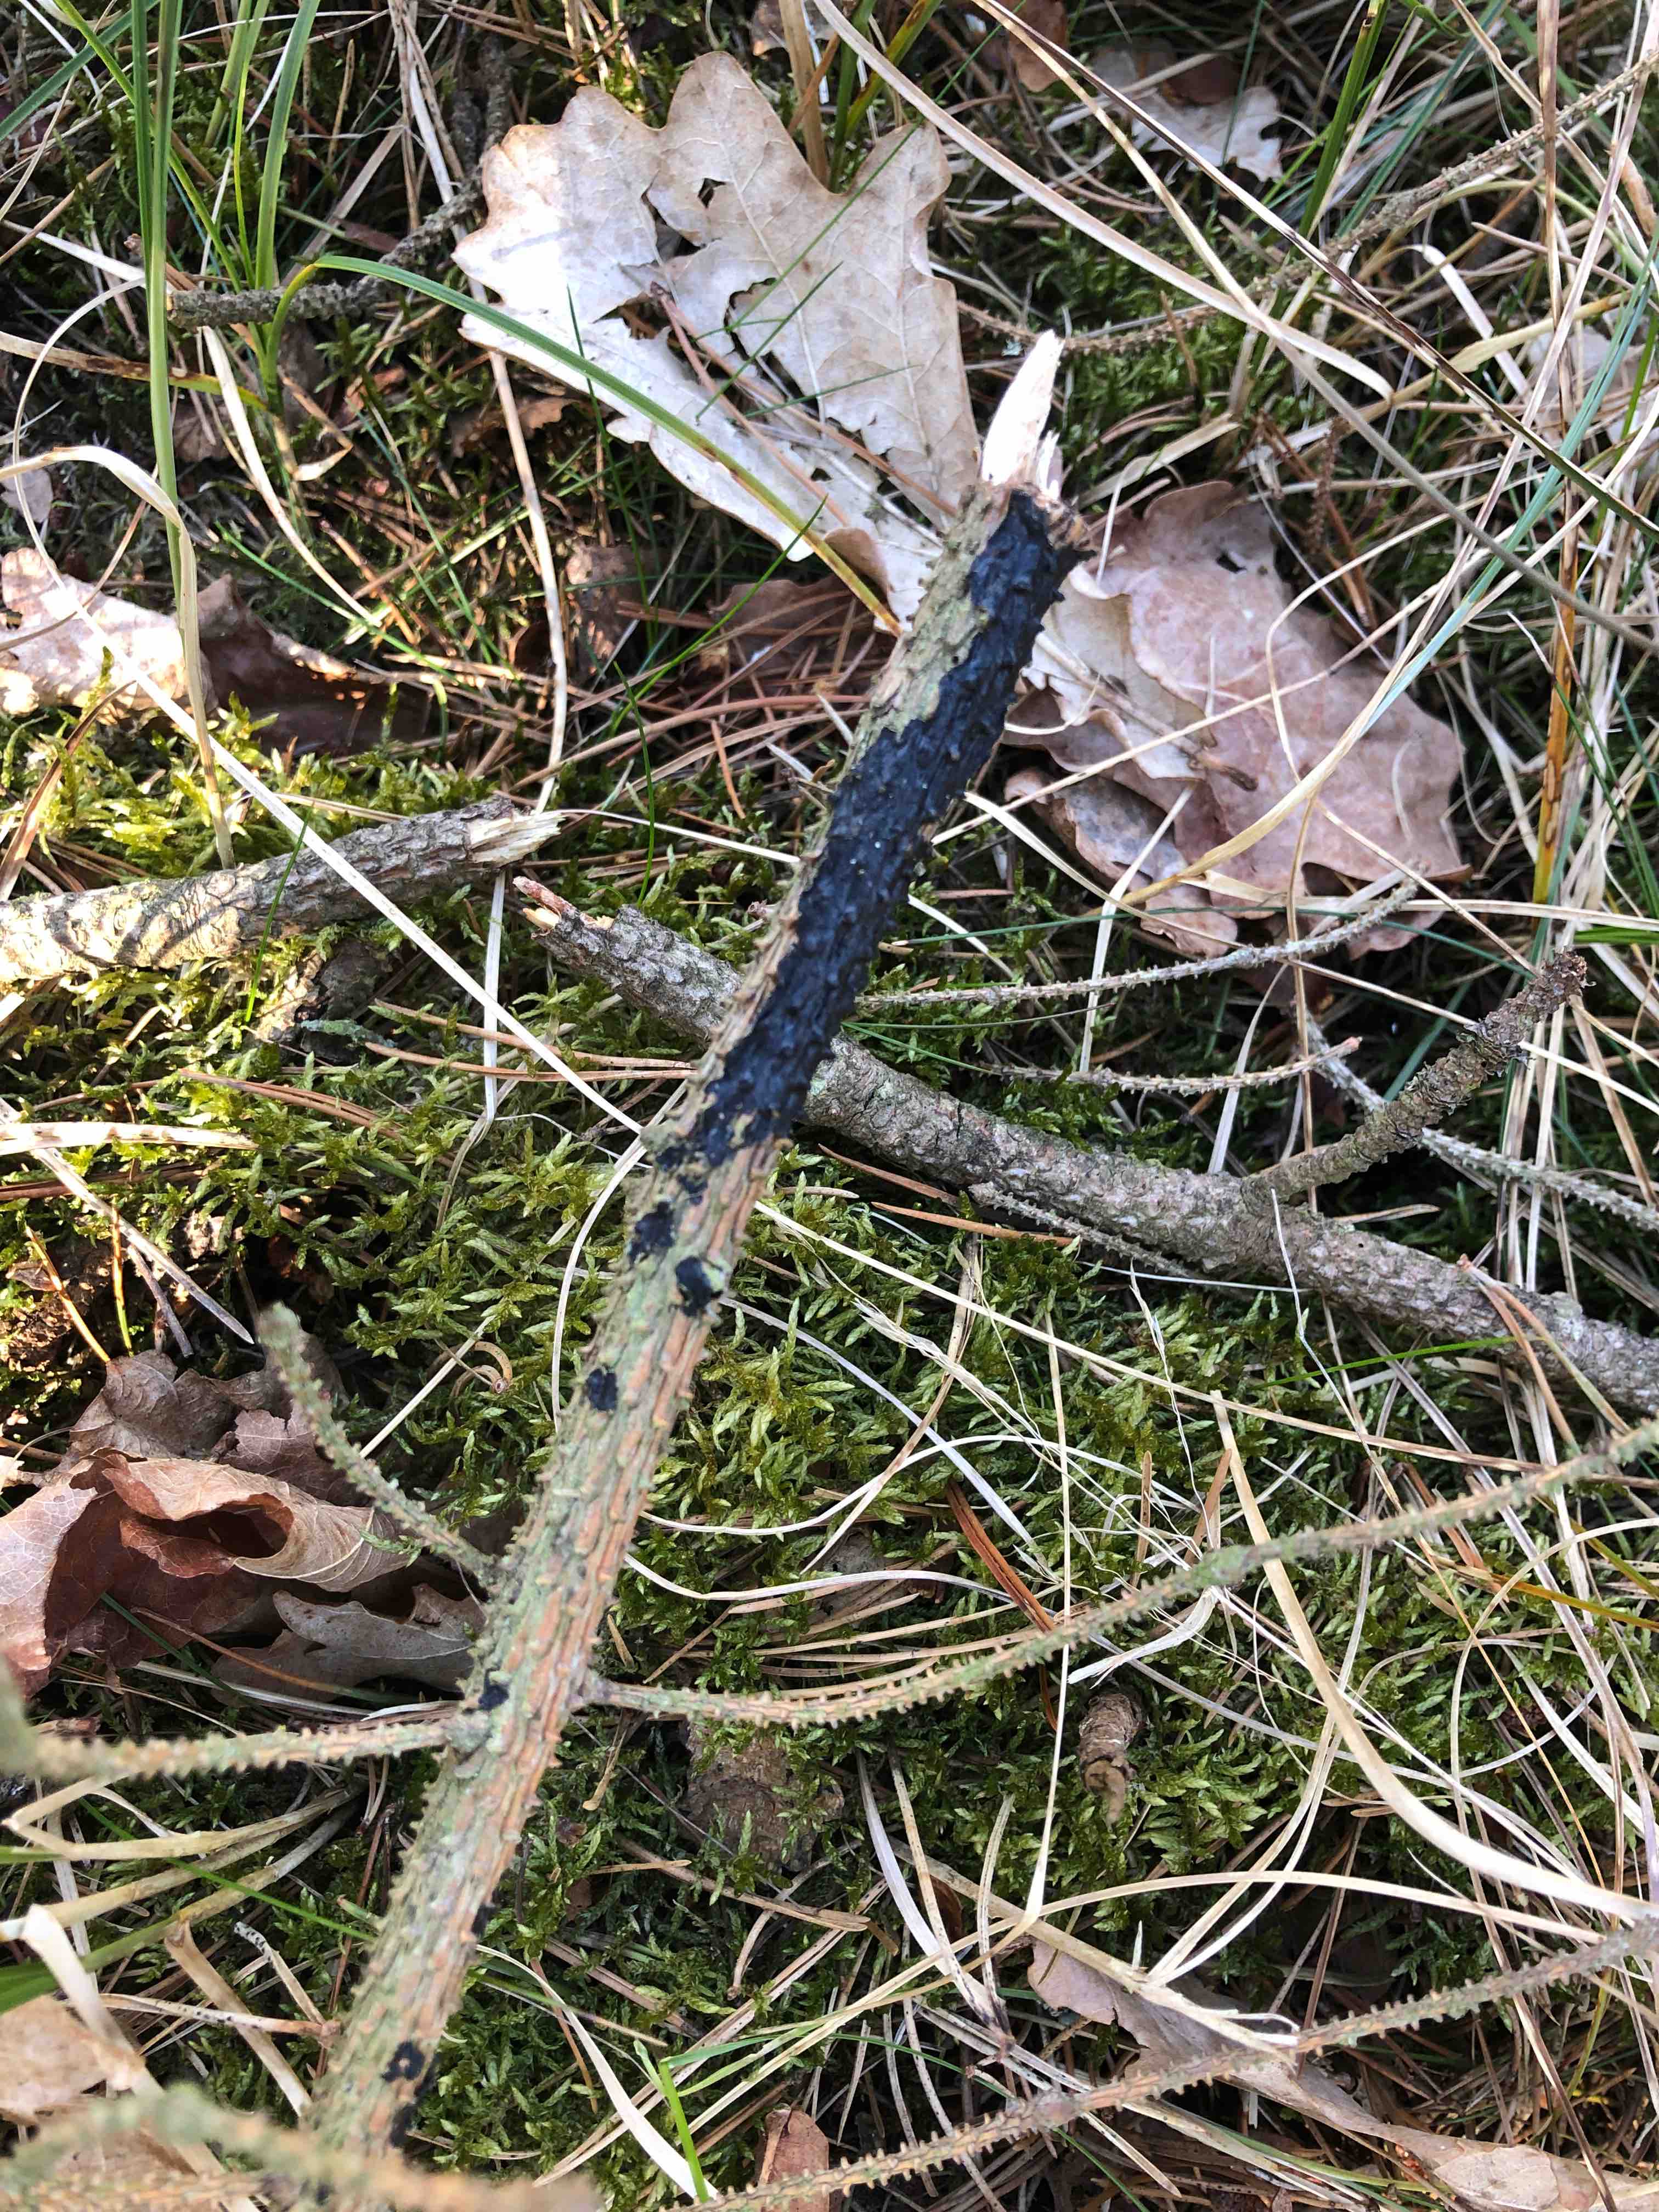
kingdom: Fungi
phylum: Basidiomycota
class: Agaricomycetes
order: Auriculariales
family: Auriculariaceae
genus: Exidia
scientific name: Exidia pithya
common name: gran-bævretop
